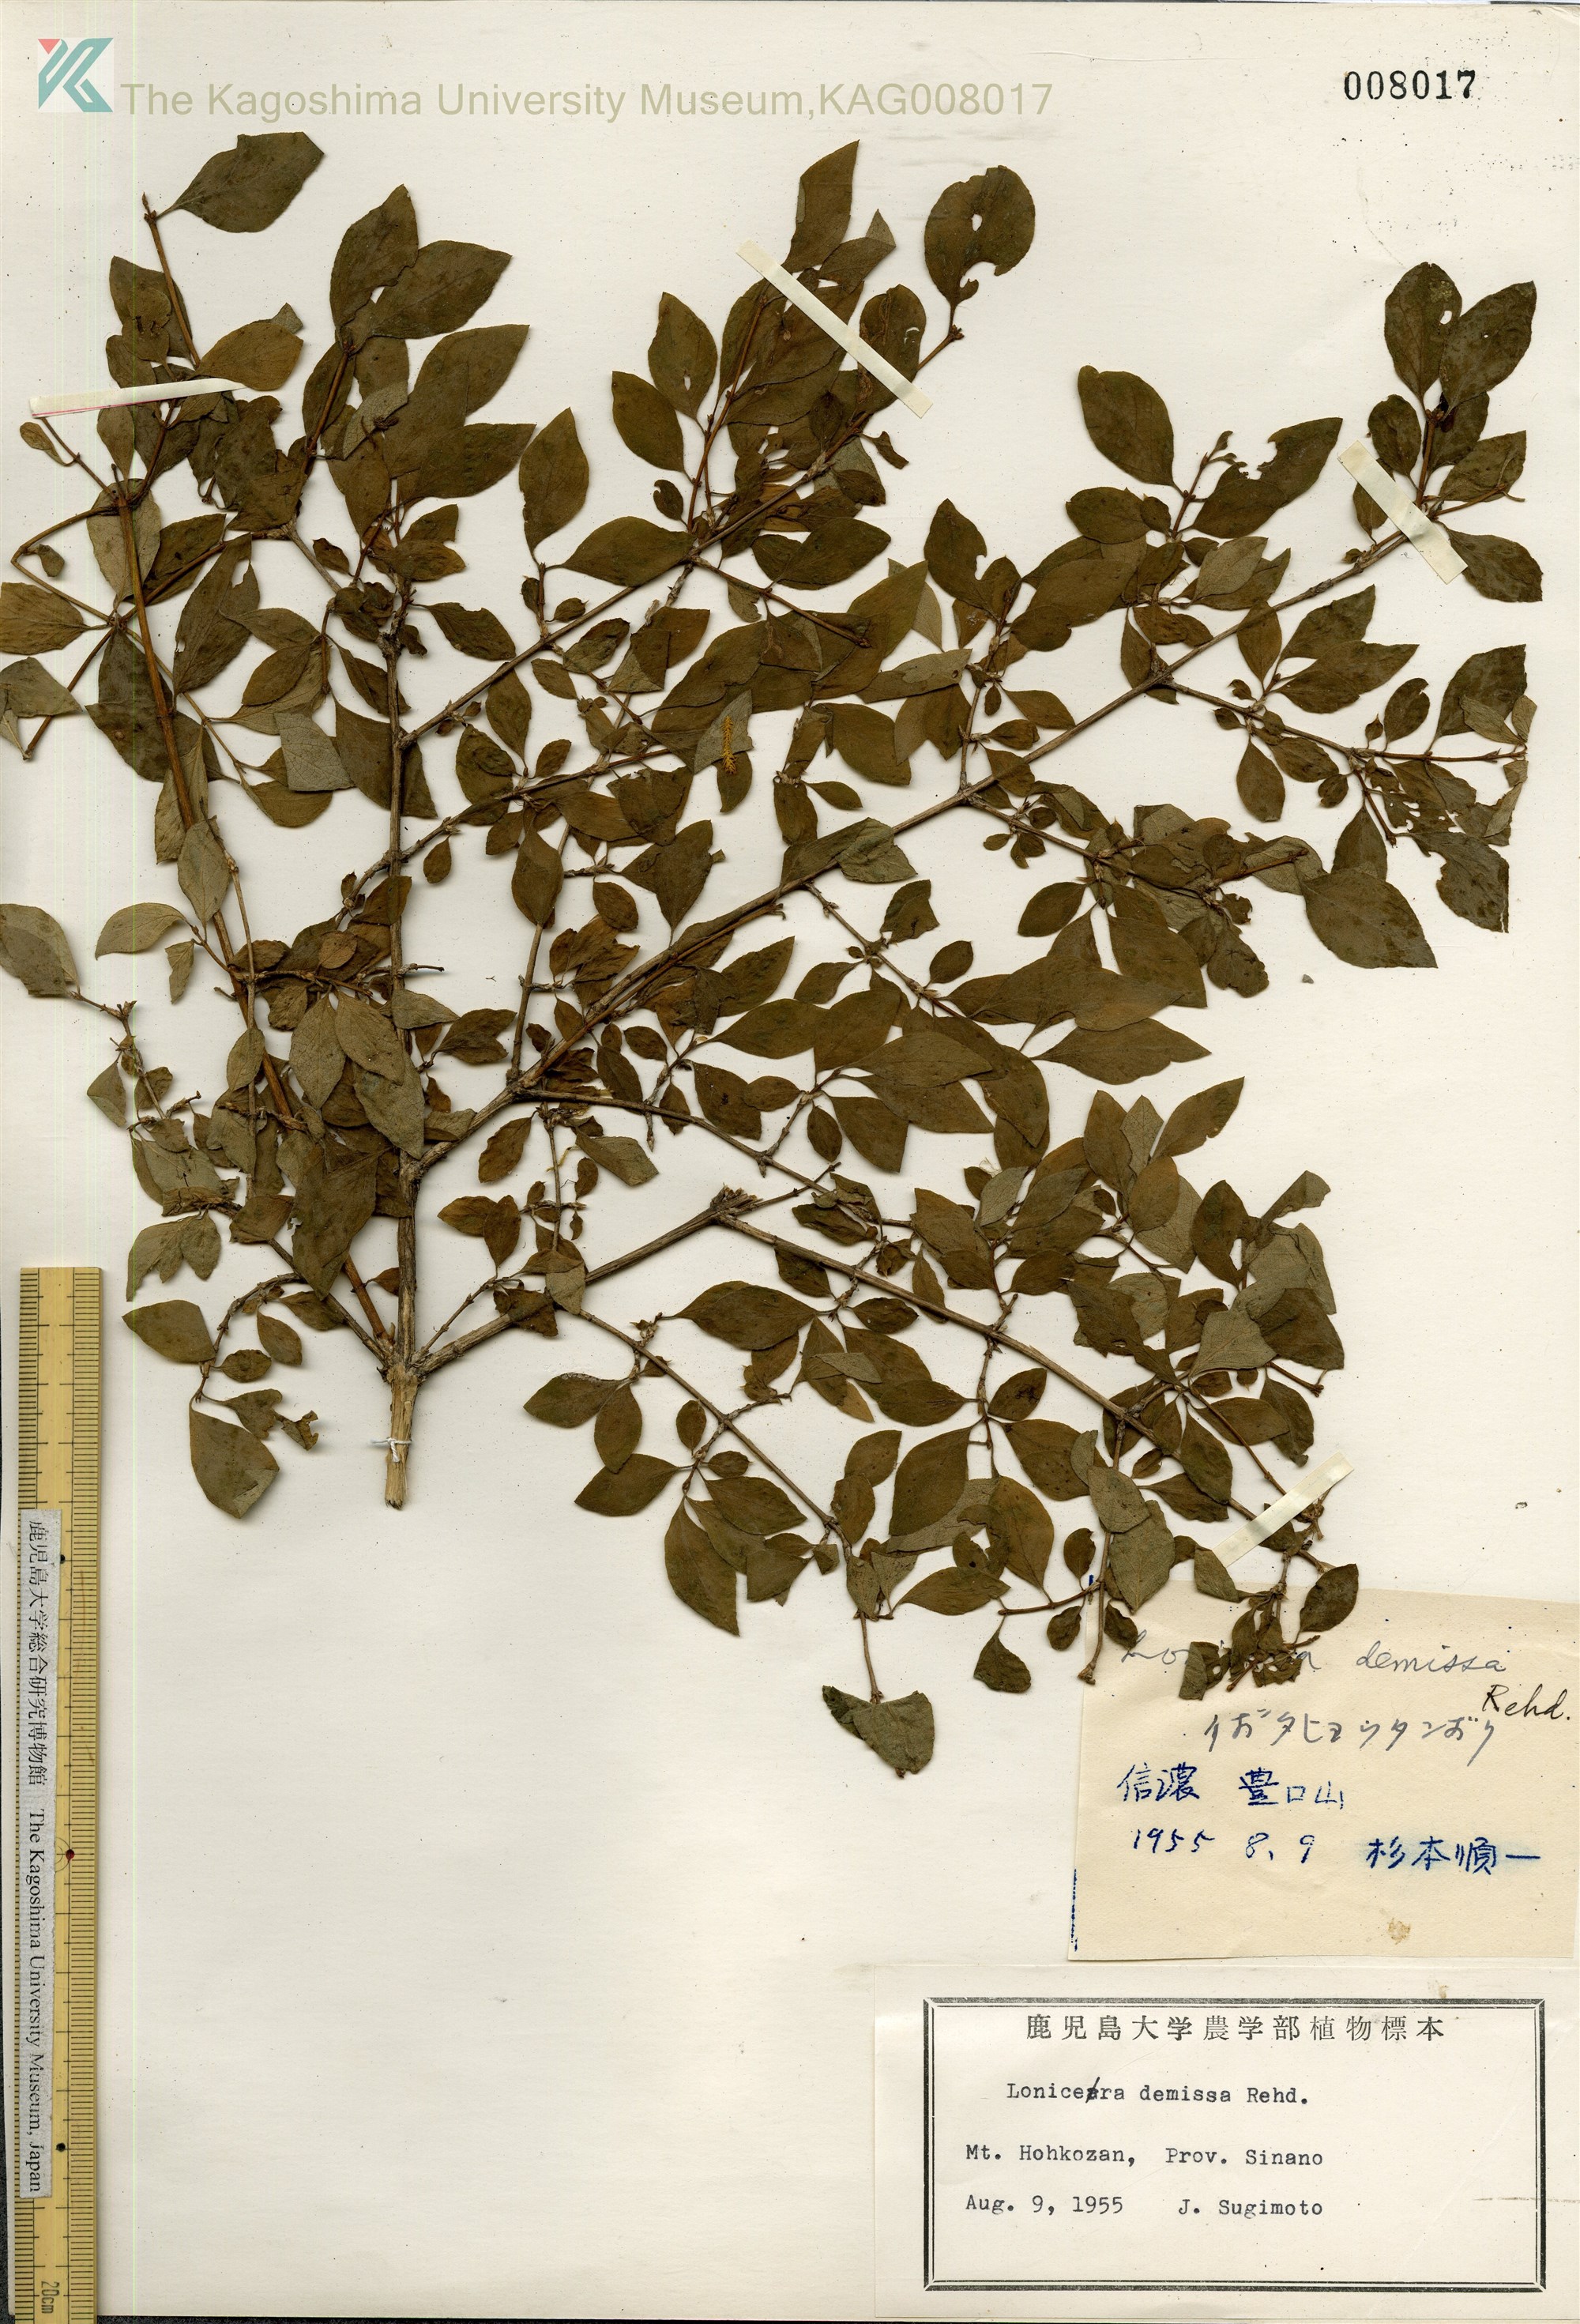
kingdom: Plantae
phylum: Tracheophyta
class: Magnoliopsida
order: Dipsacales
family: Caprifoliaceae
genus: Lonicera
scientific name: Lonicera demissa
